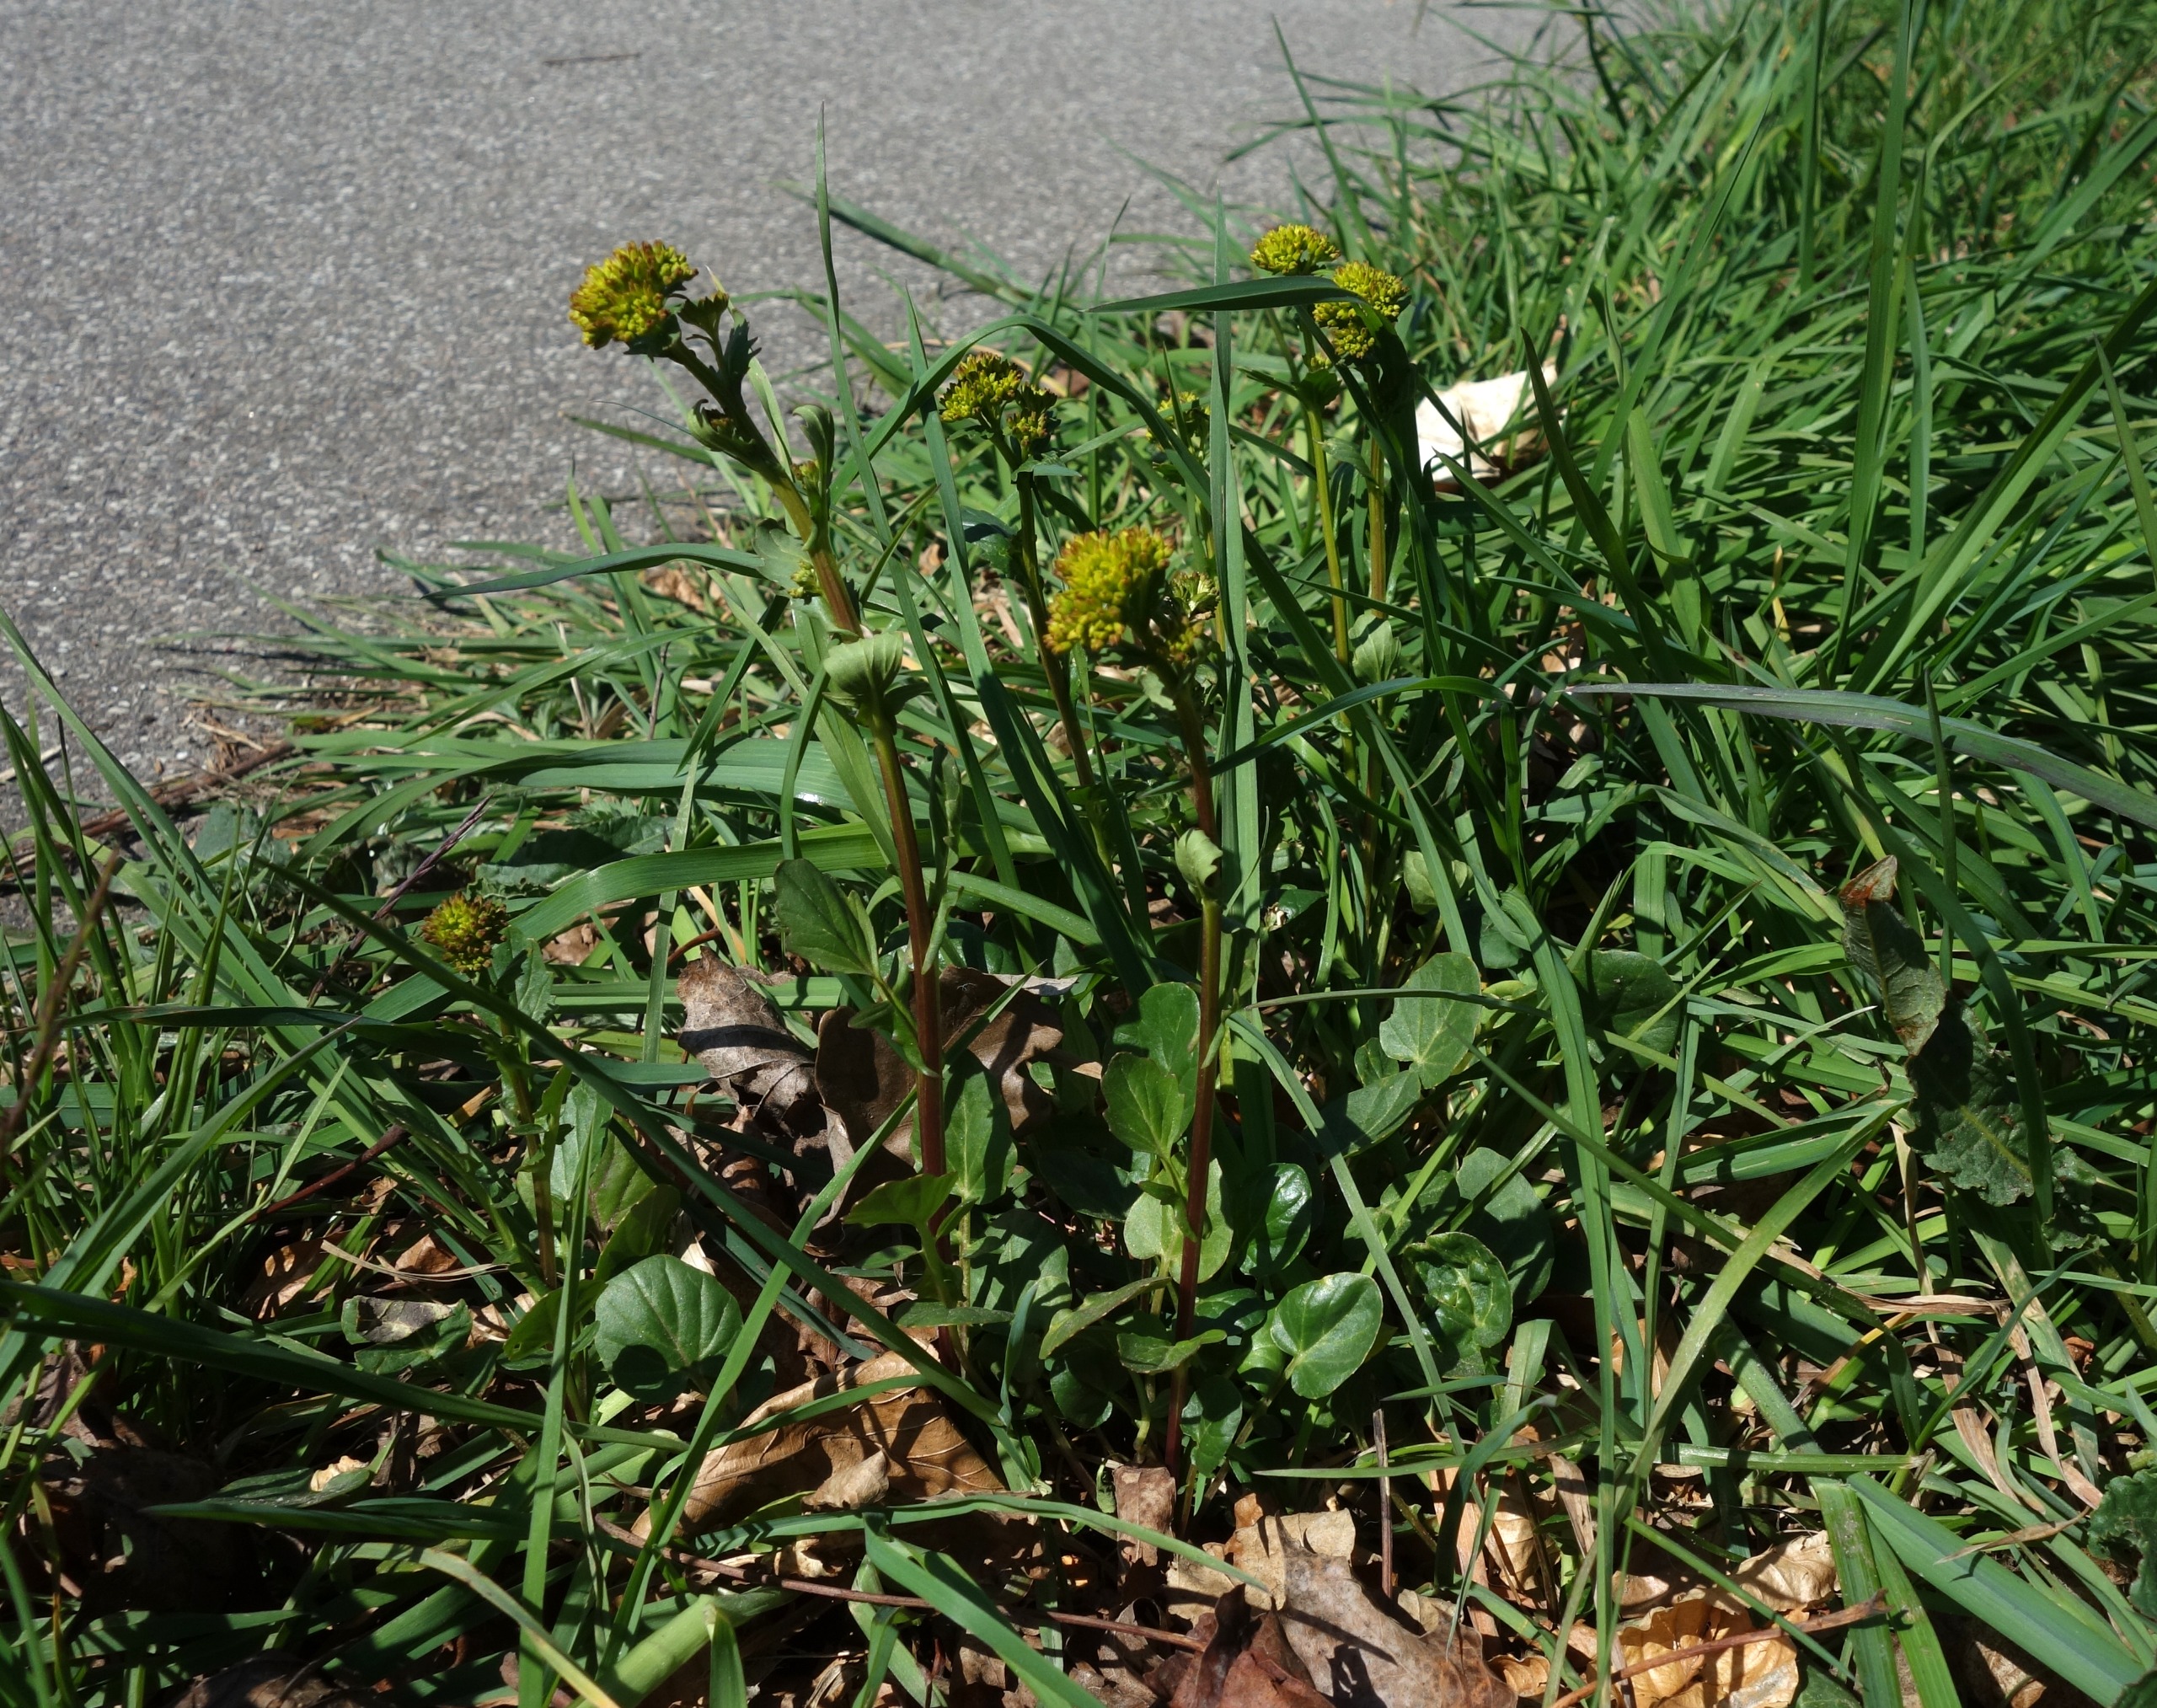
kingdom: Plantae
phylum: Tracheophyta
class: Magnoliopsida
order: Brassicales
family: Brassicaceae
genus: Barbarea
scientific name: Barbarea vulgaris
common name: Udspærret vinterkarse
